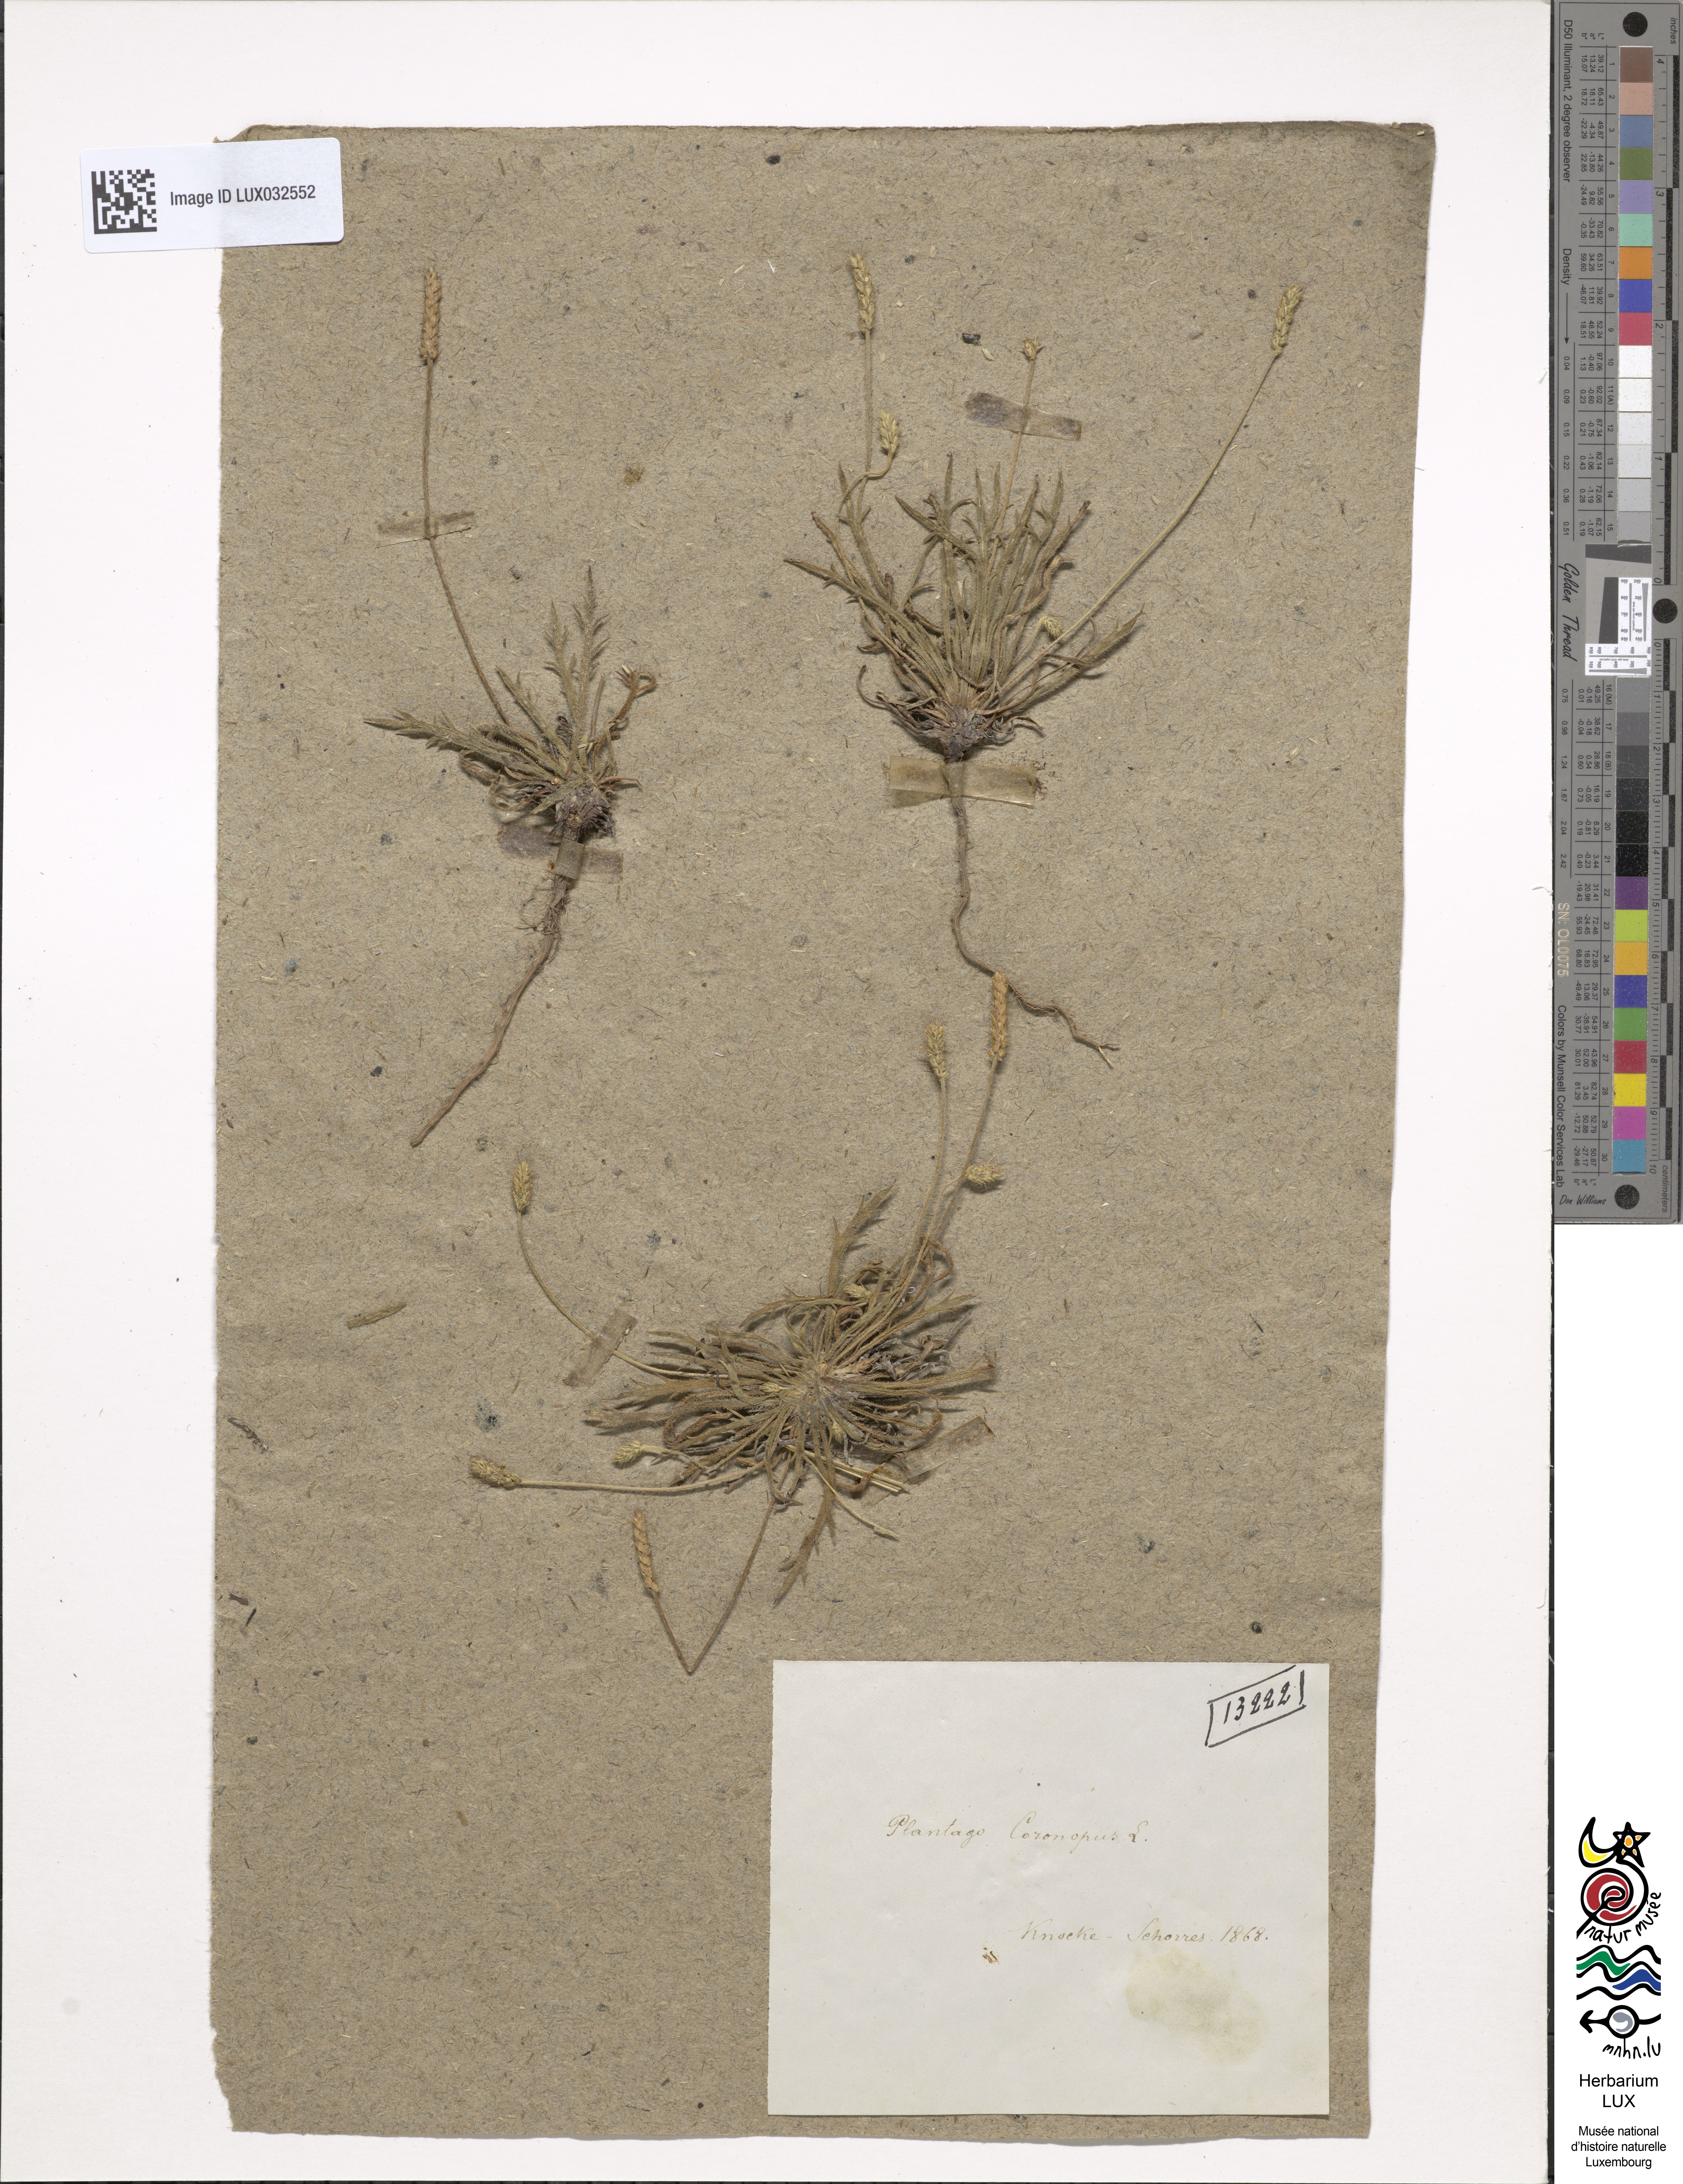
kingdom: Plantae
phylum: Tracheophyta
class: Magnoliopsida
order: Lamiales
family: Plantaginaceae
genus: Plantago
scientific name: Plantago coronopus
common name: Buck's-horn plantain
